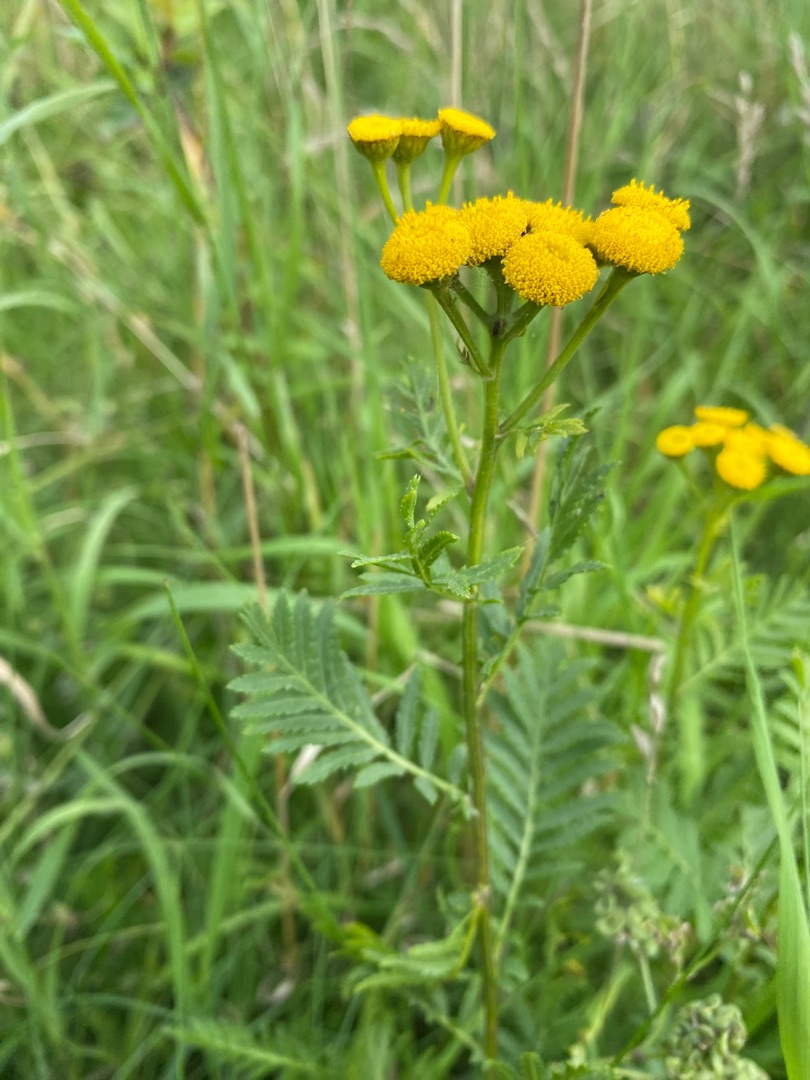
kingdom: Plantae
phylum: Tracheophyta
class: Magnoliopsida
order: Asterales
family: Asteraceae
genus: Tanacetum
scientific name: Tanacetum vulgare
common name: Rejnfan
